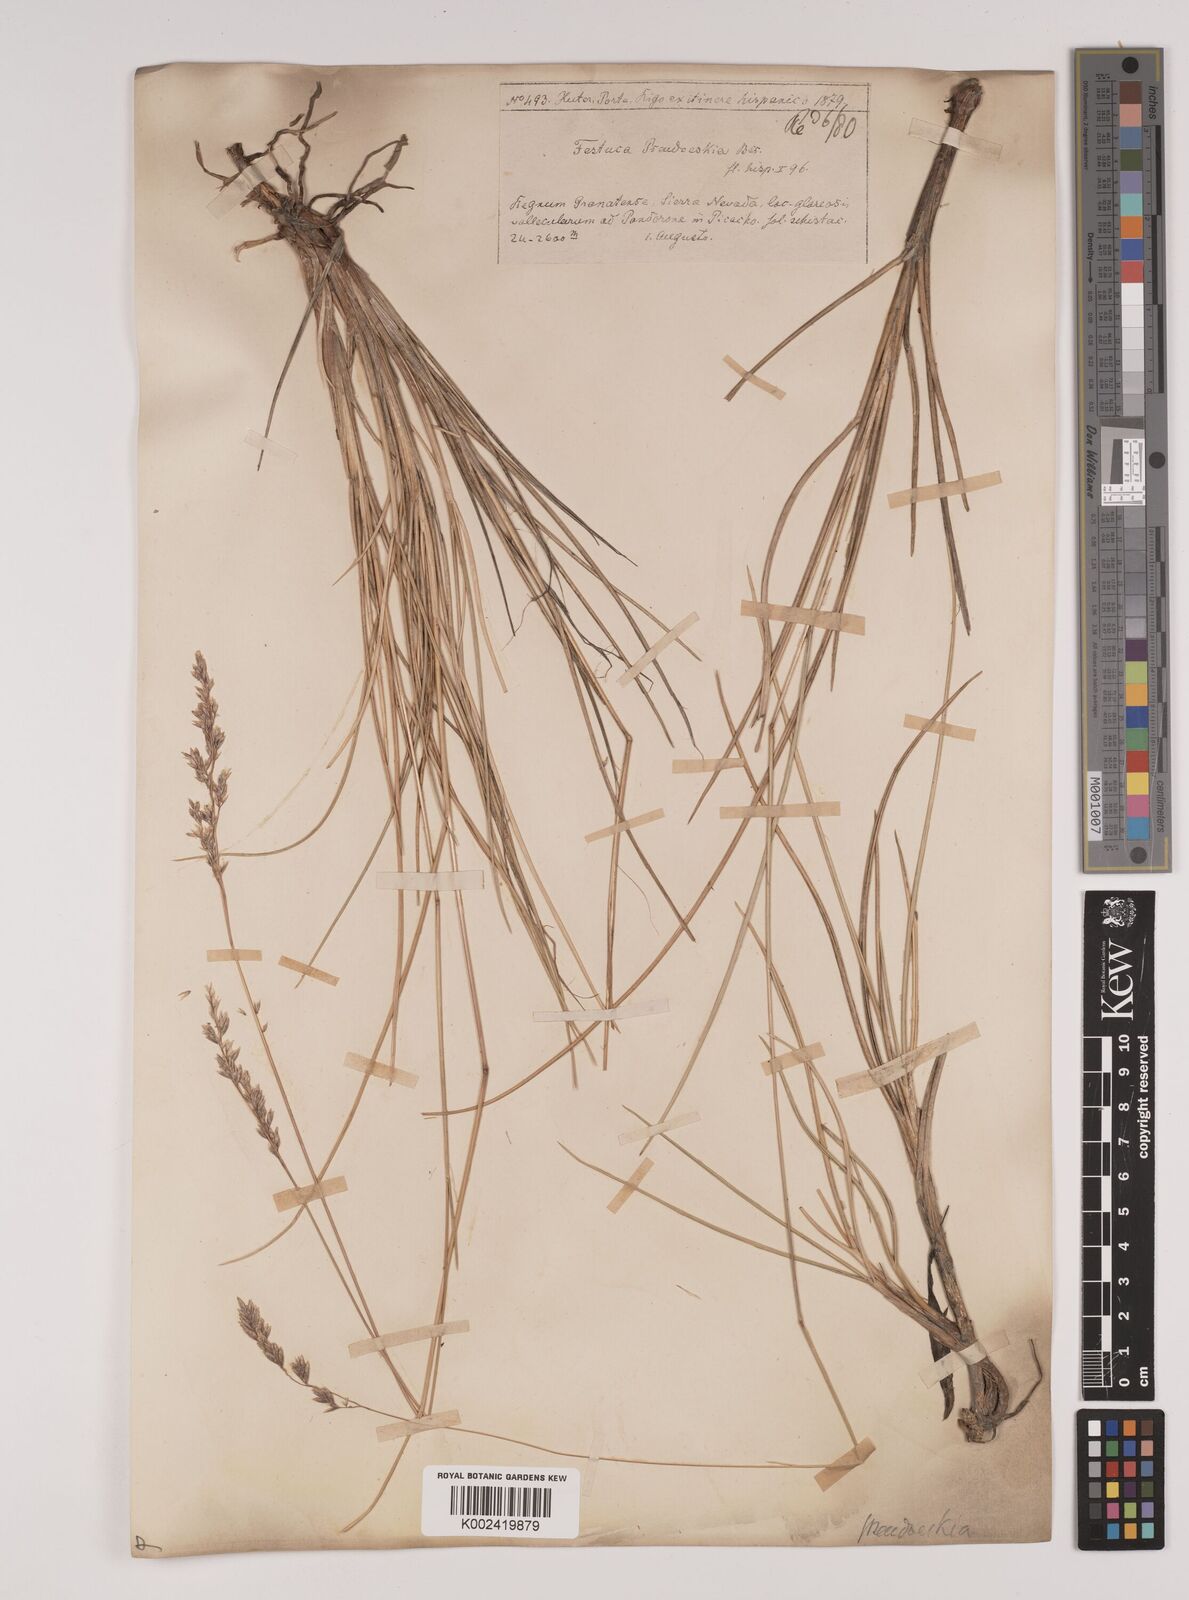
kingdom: Plantae
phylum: Tracheophyta
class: Liliopsida
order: Poales
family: Poaceae
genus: Festuca
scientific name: Festuca pseudeskia
